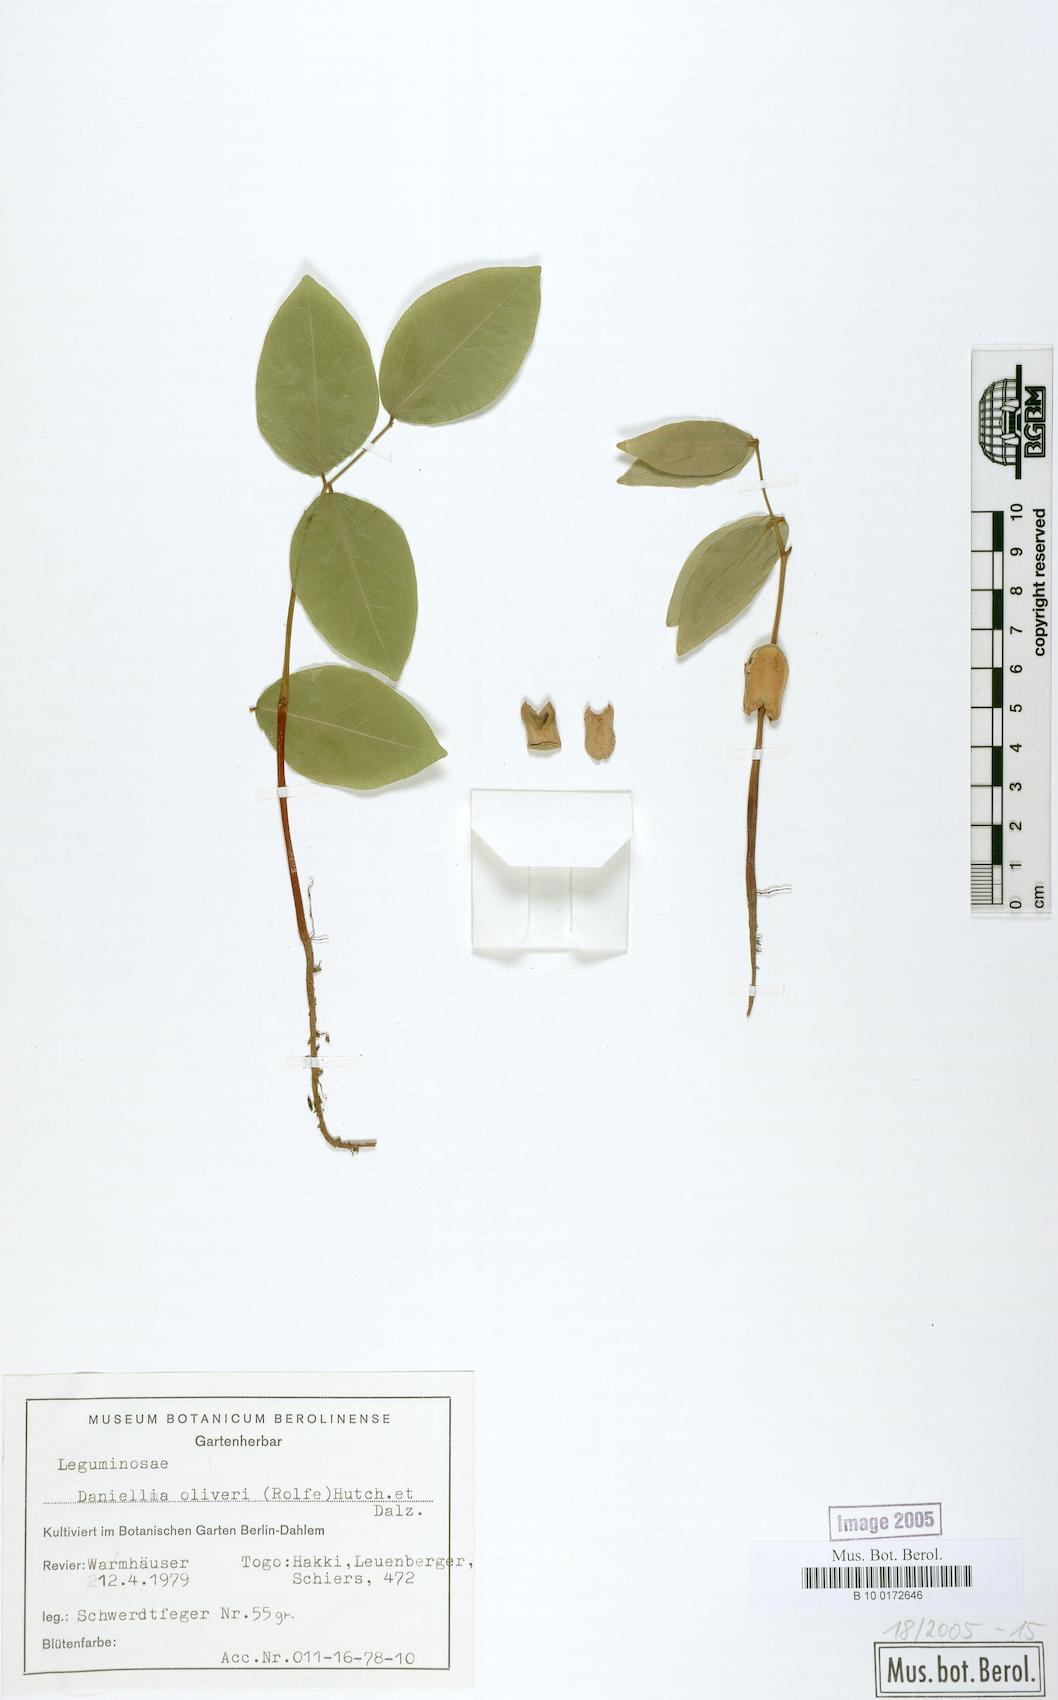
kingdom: Plantae
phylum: Tracheophyta
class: Magnoliopsida
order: Fabales
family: Fabaceae
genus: Daniellia
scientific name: Daniellia oliveri
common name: African copaiba balsamtree
